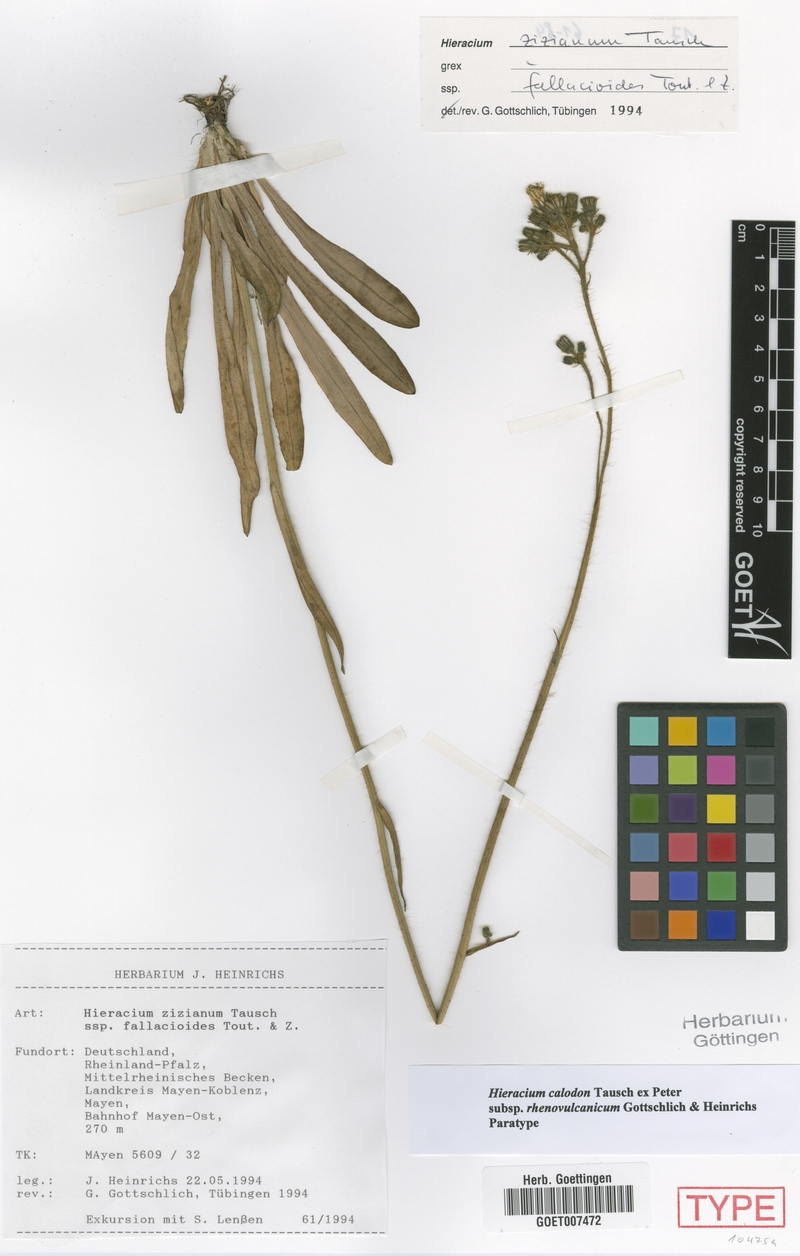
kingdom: Plantae
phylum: Tracheophyta
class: Magnoliopsida
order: Asterales
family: Asteraceae
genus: Pilosella
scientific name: Pilosella calodon
